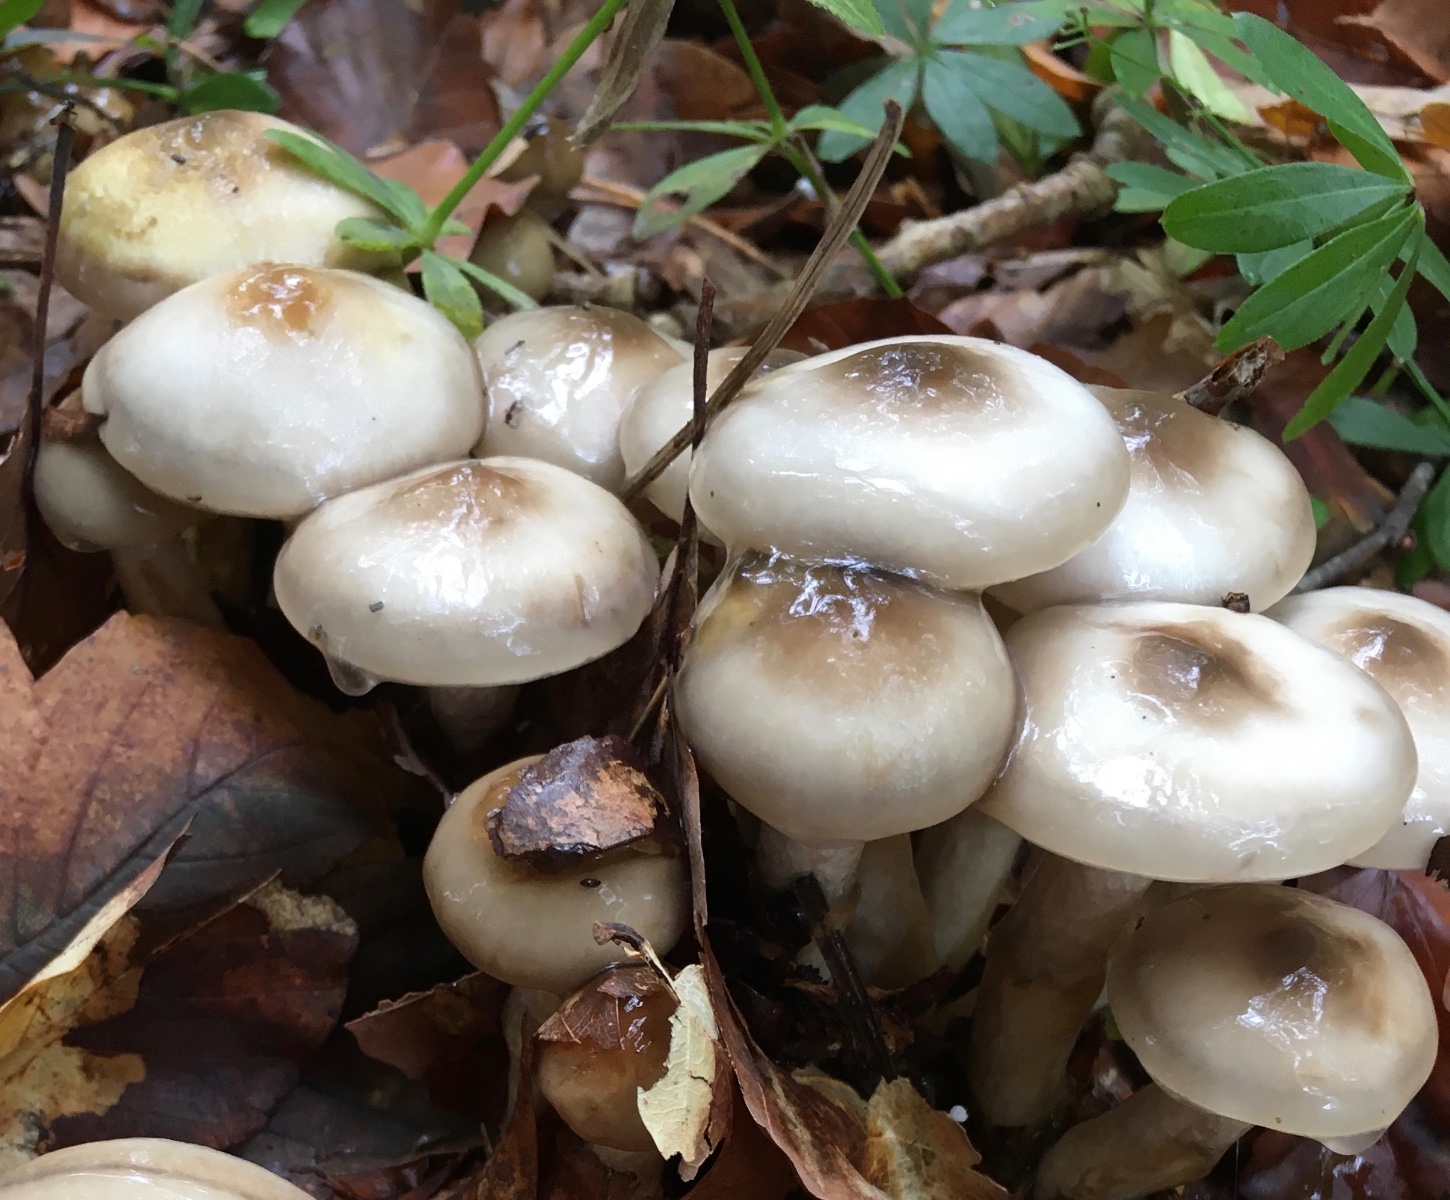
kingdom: Fungi
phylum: Basidiomycota
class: Agaricomycetes
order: Agaricales
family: Hygrophoraceae
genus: Hygrophorus
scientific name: Hygrophorus glutinifer
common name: tvefarvet sneglehat
